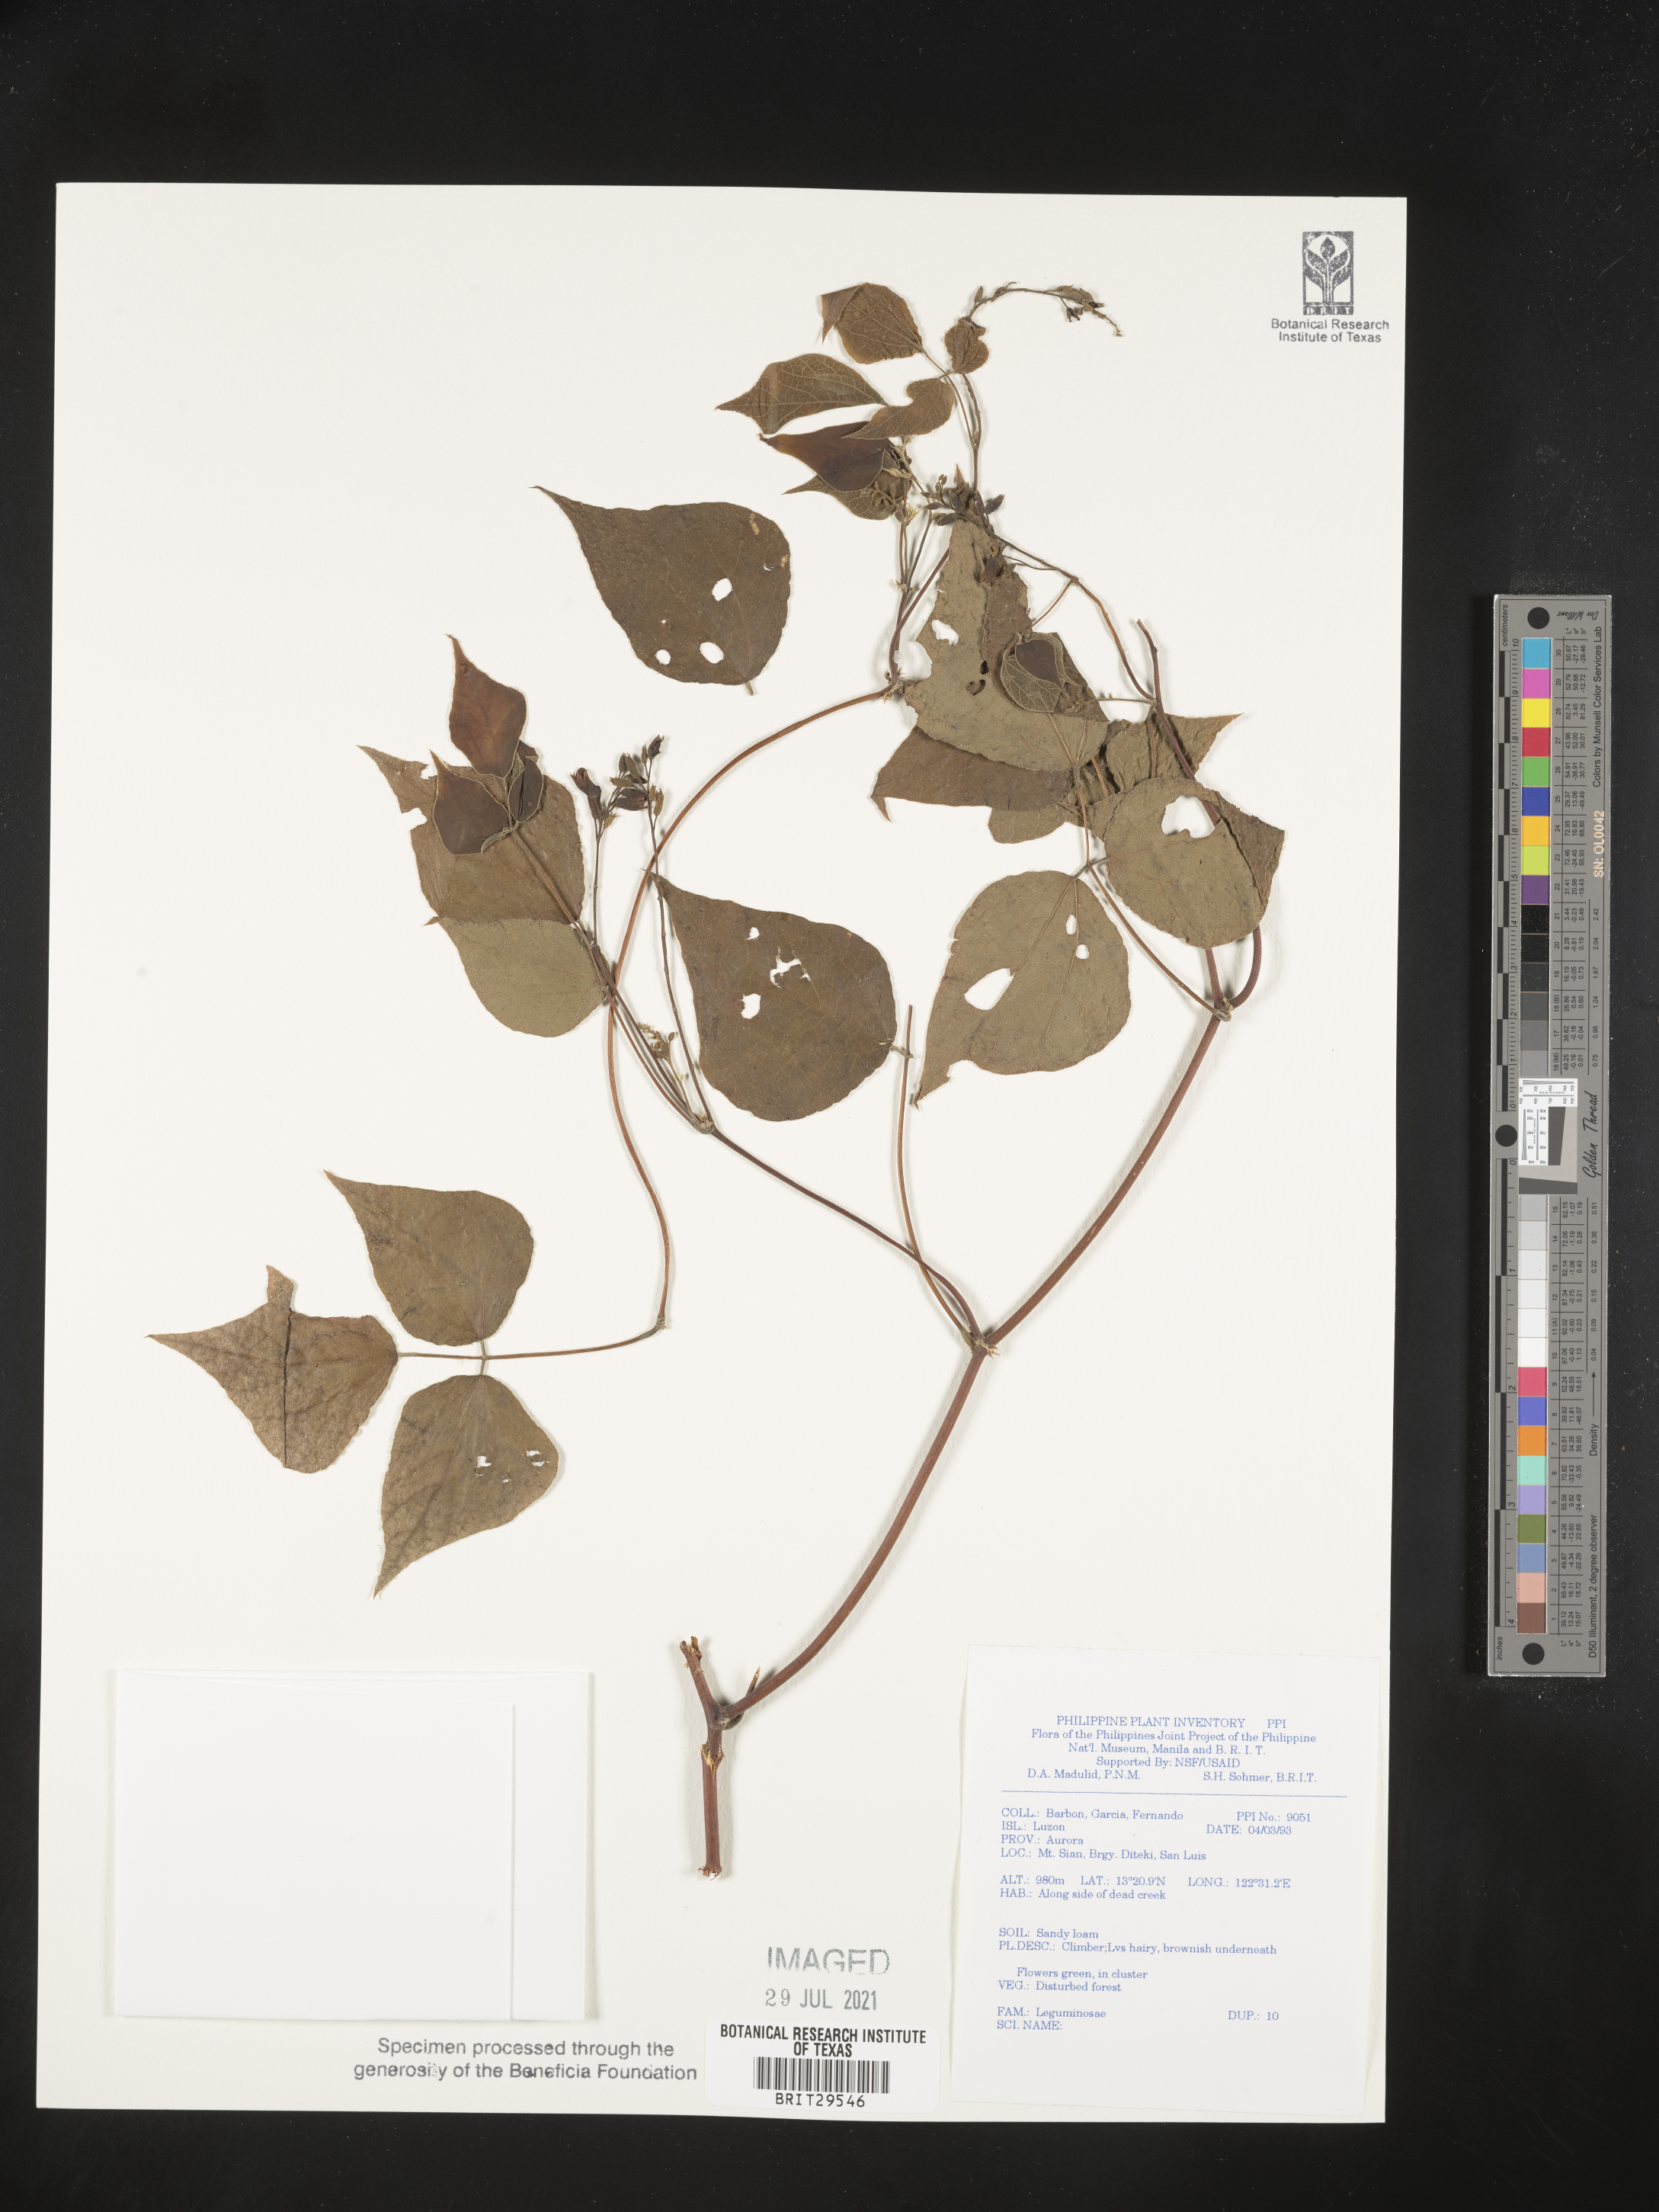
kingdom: Plantae
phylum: Tracheophyta
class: Magnoliopsida
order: Fabales
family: Fabaceae
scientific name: Fabaceae
